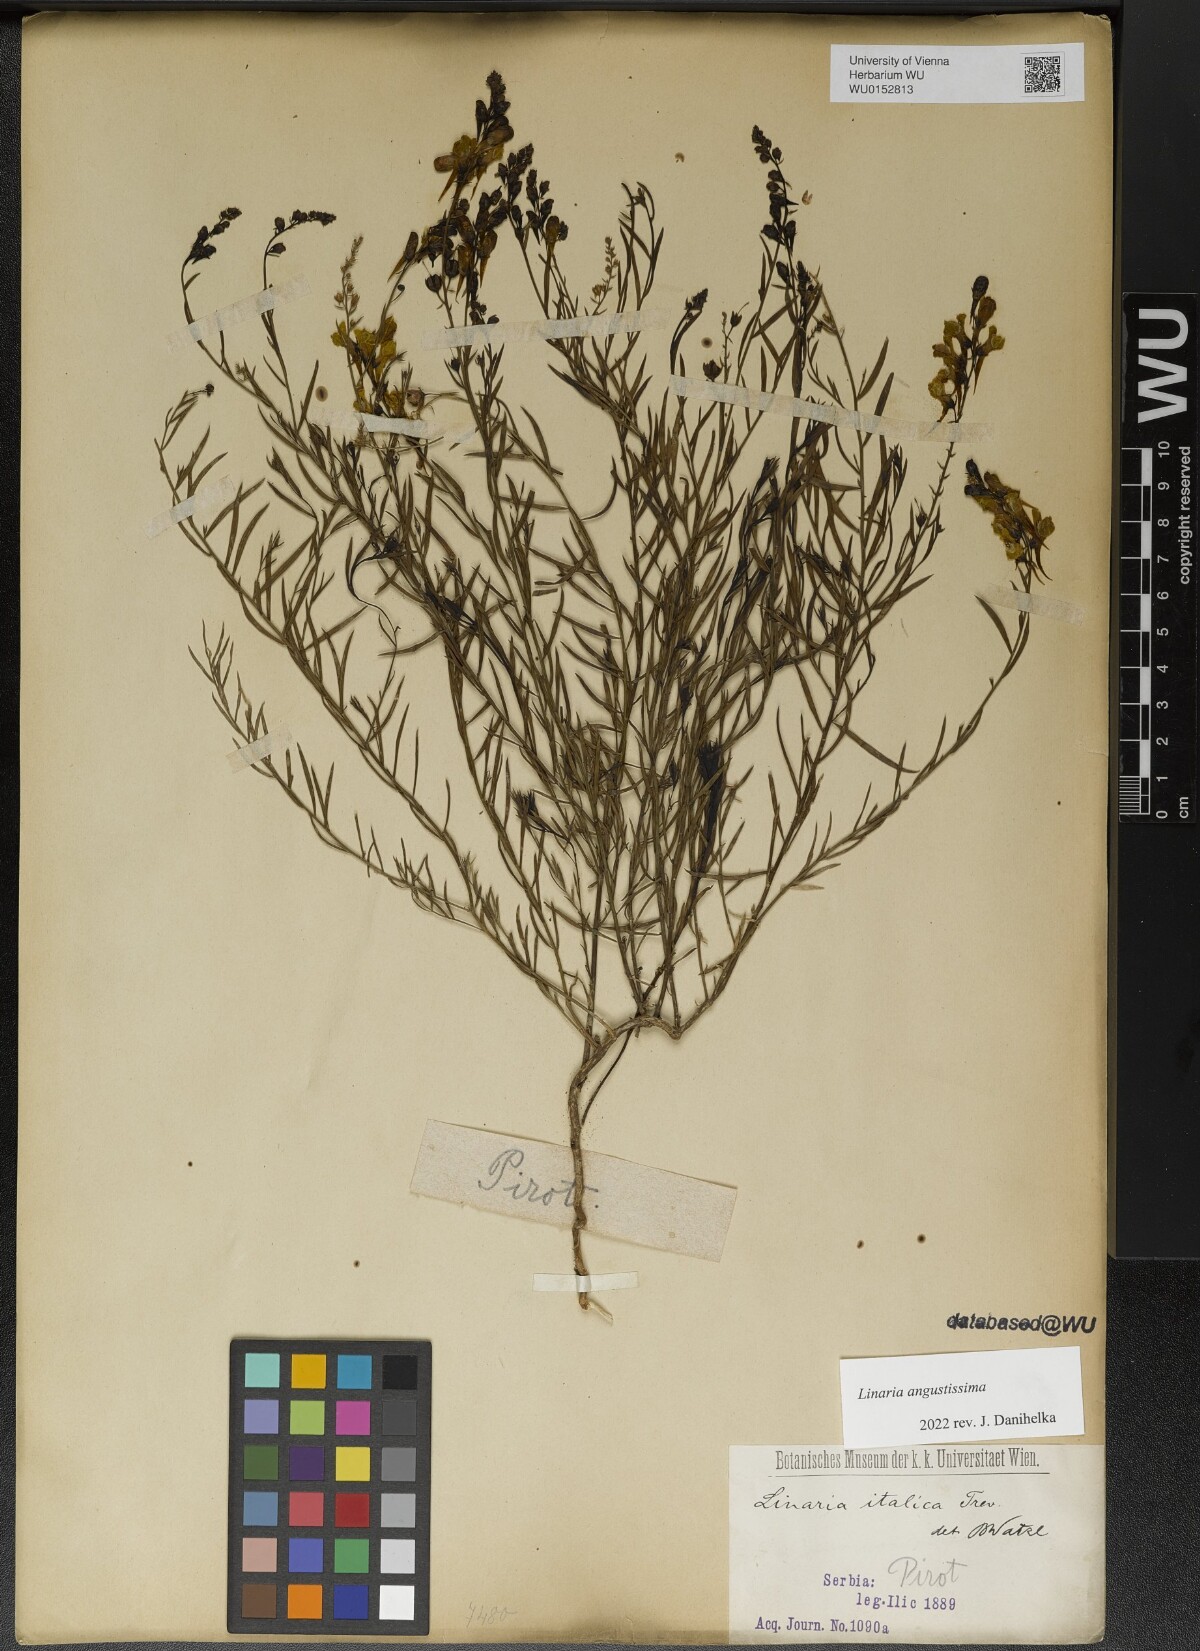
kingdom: Plantae
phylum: Tracheophyta
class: Magnoliopsida
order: Lamiales
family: Plantaginaceae
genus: Linaria
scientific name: Linaria angustissima
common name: Italian toadflax
